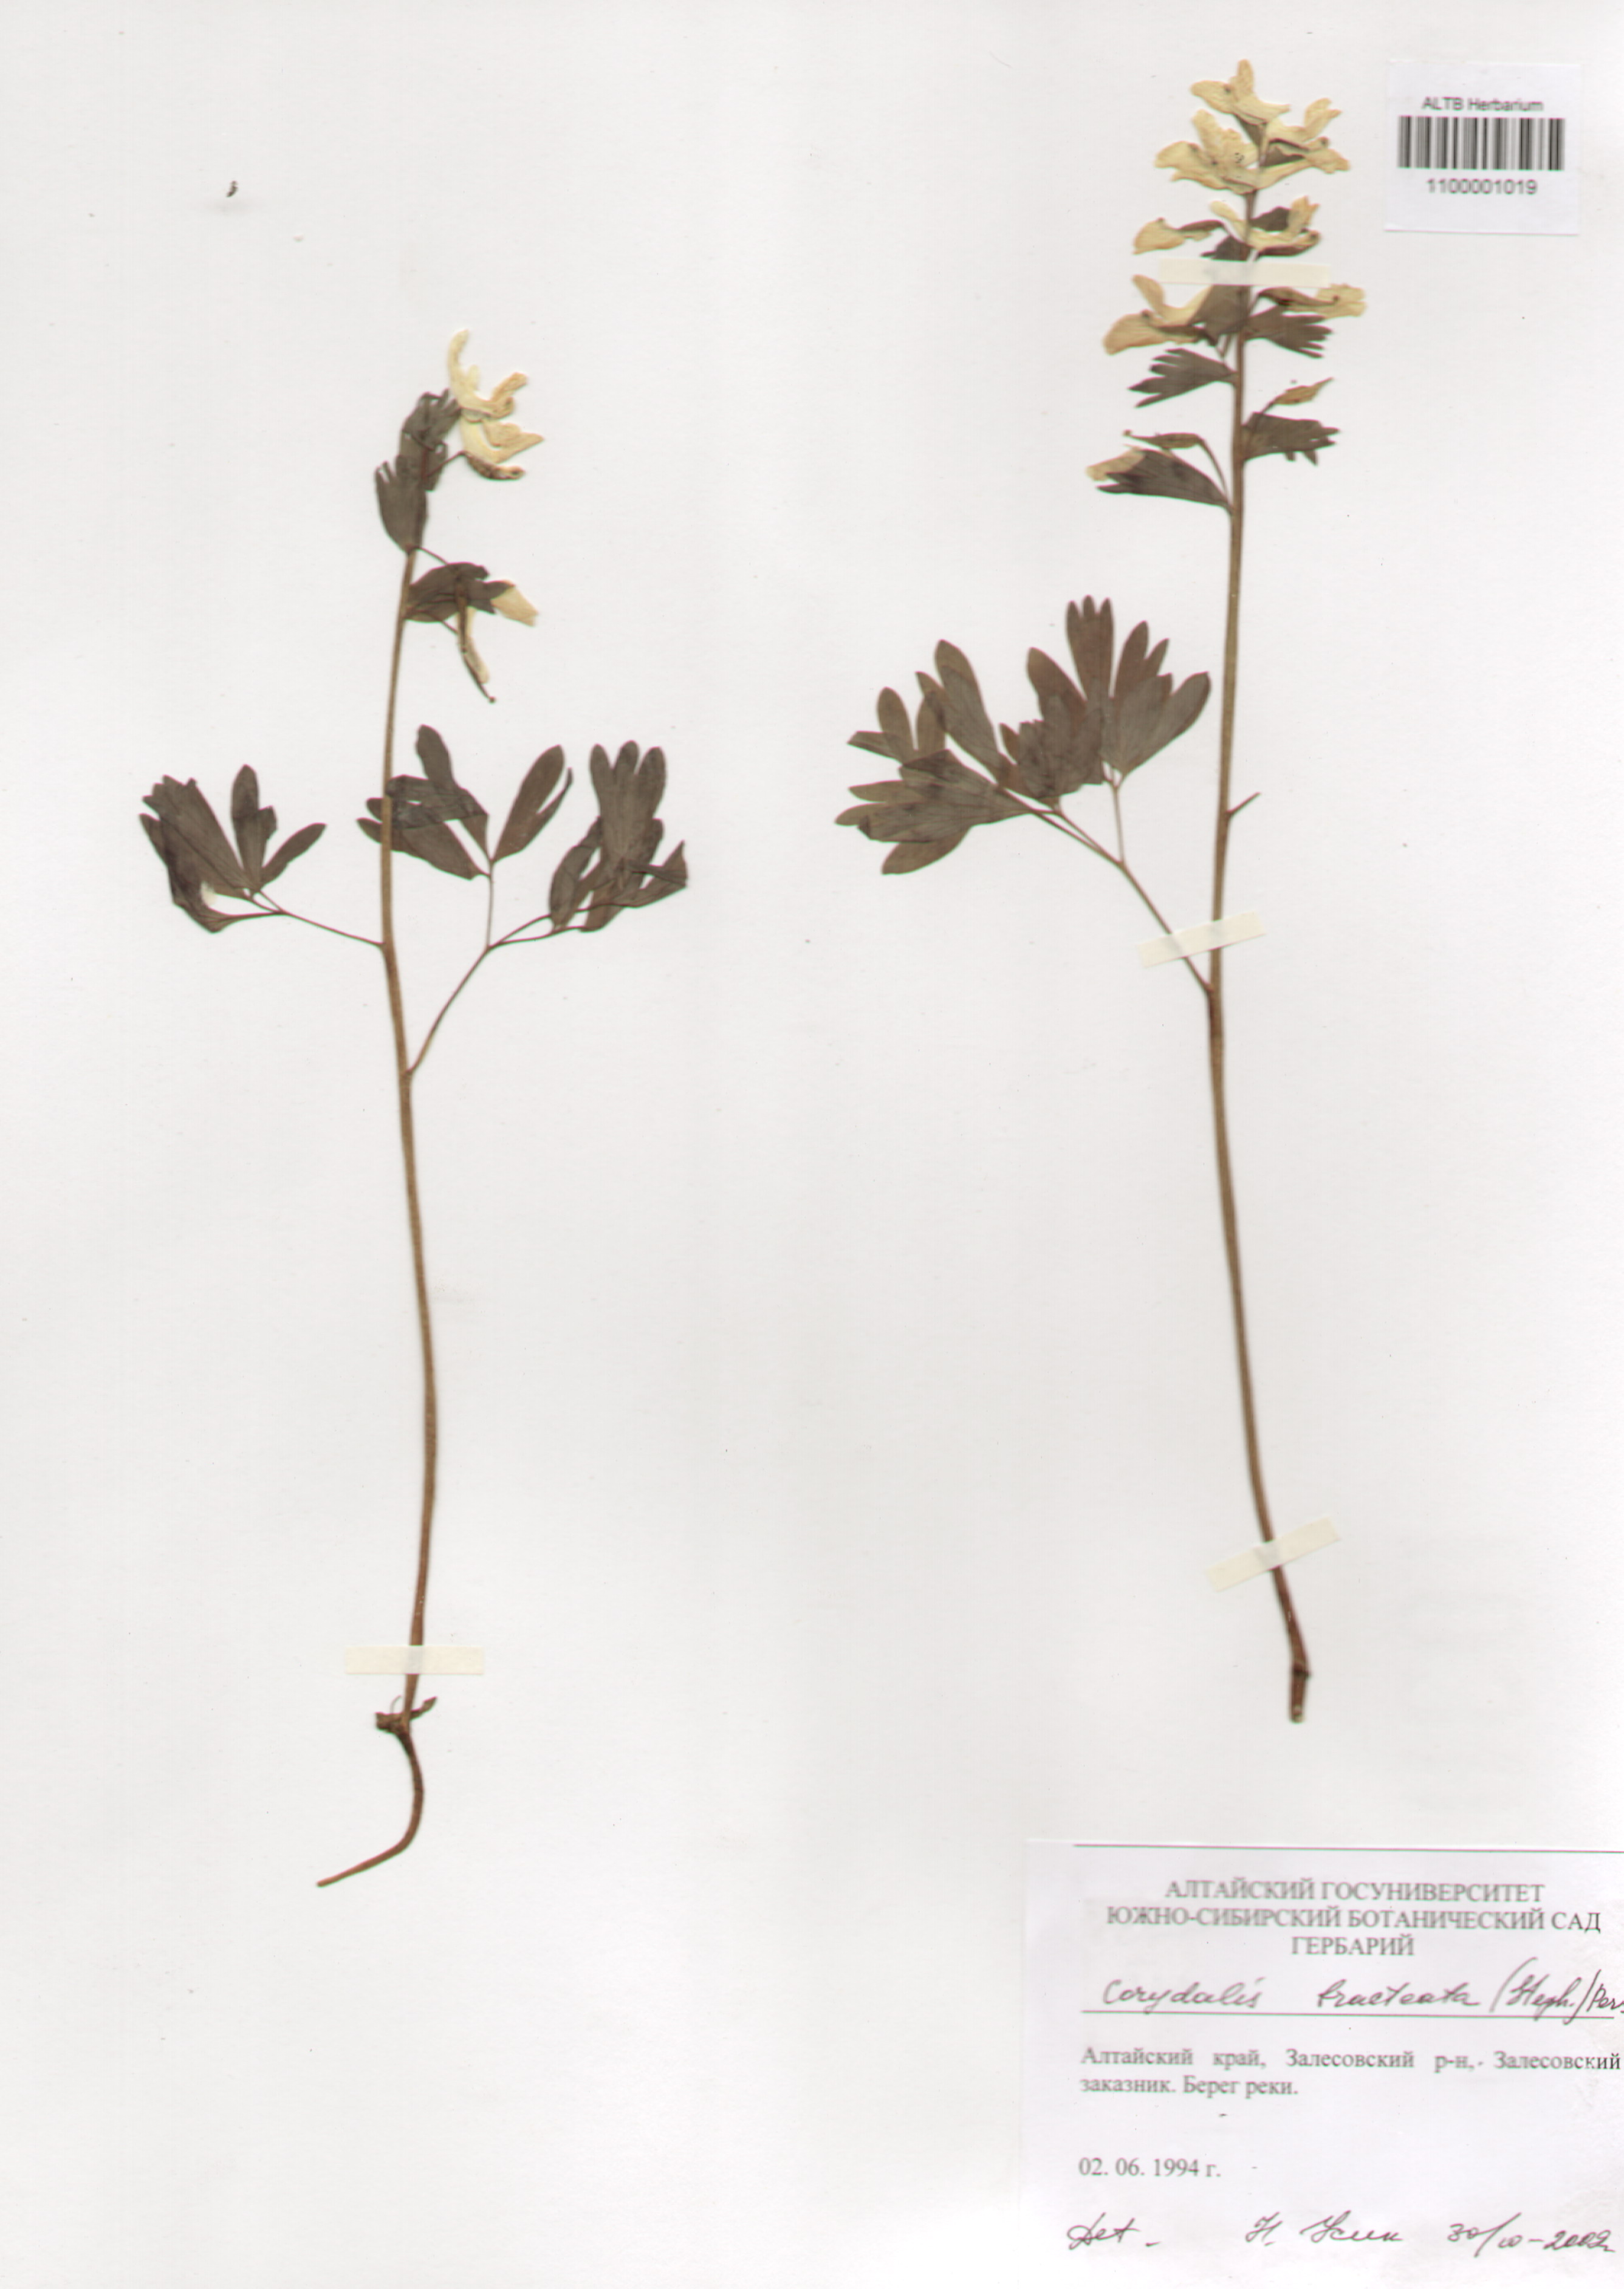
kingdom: Plantae
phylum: Tracheophyta
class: Magnoliopsida
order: Ranunculales
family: Papaveraceae
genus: Corydalis
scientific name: Corydalis bracteata
